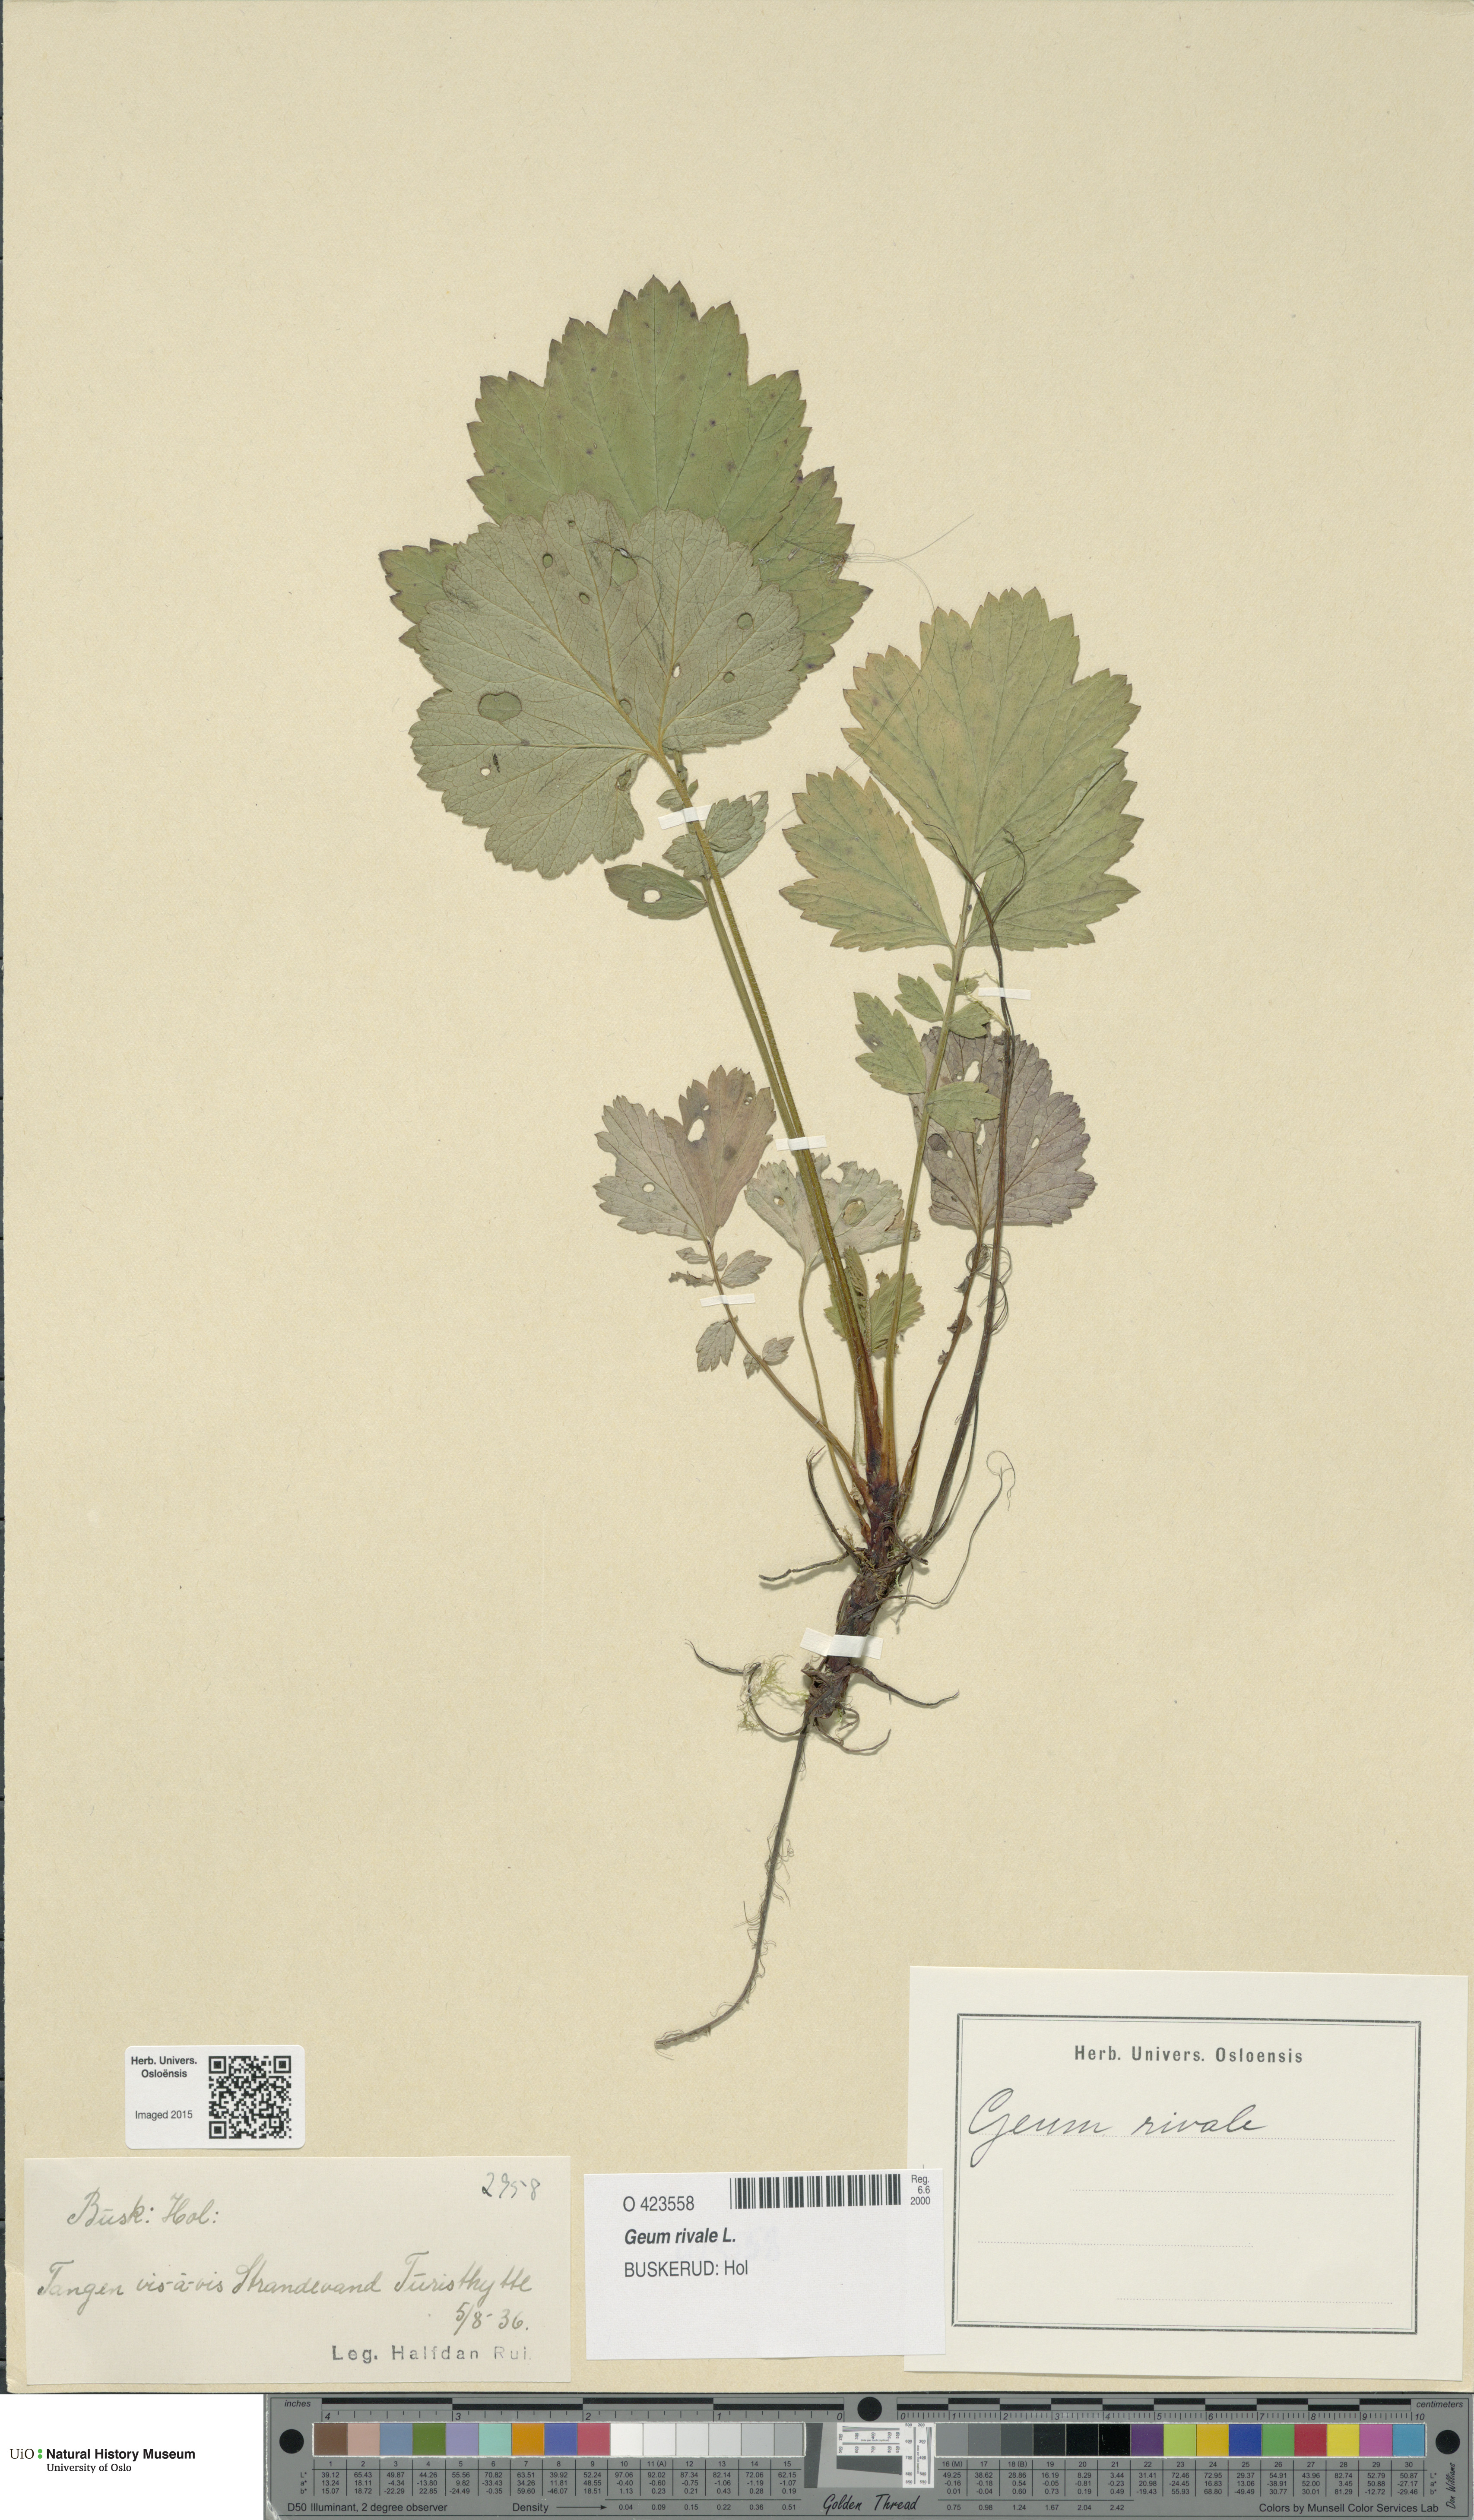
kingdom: Plantae
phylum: Tracheophyta
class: Magnoliopsida
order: Rosales
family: Rosaceae
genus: Geum
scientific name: Geum rivale
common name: Water avens
